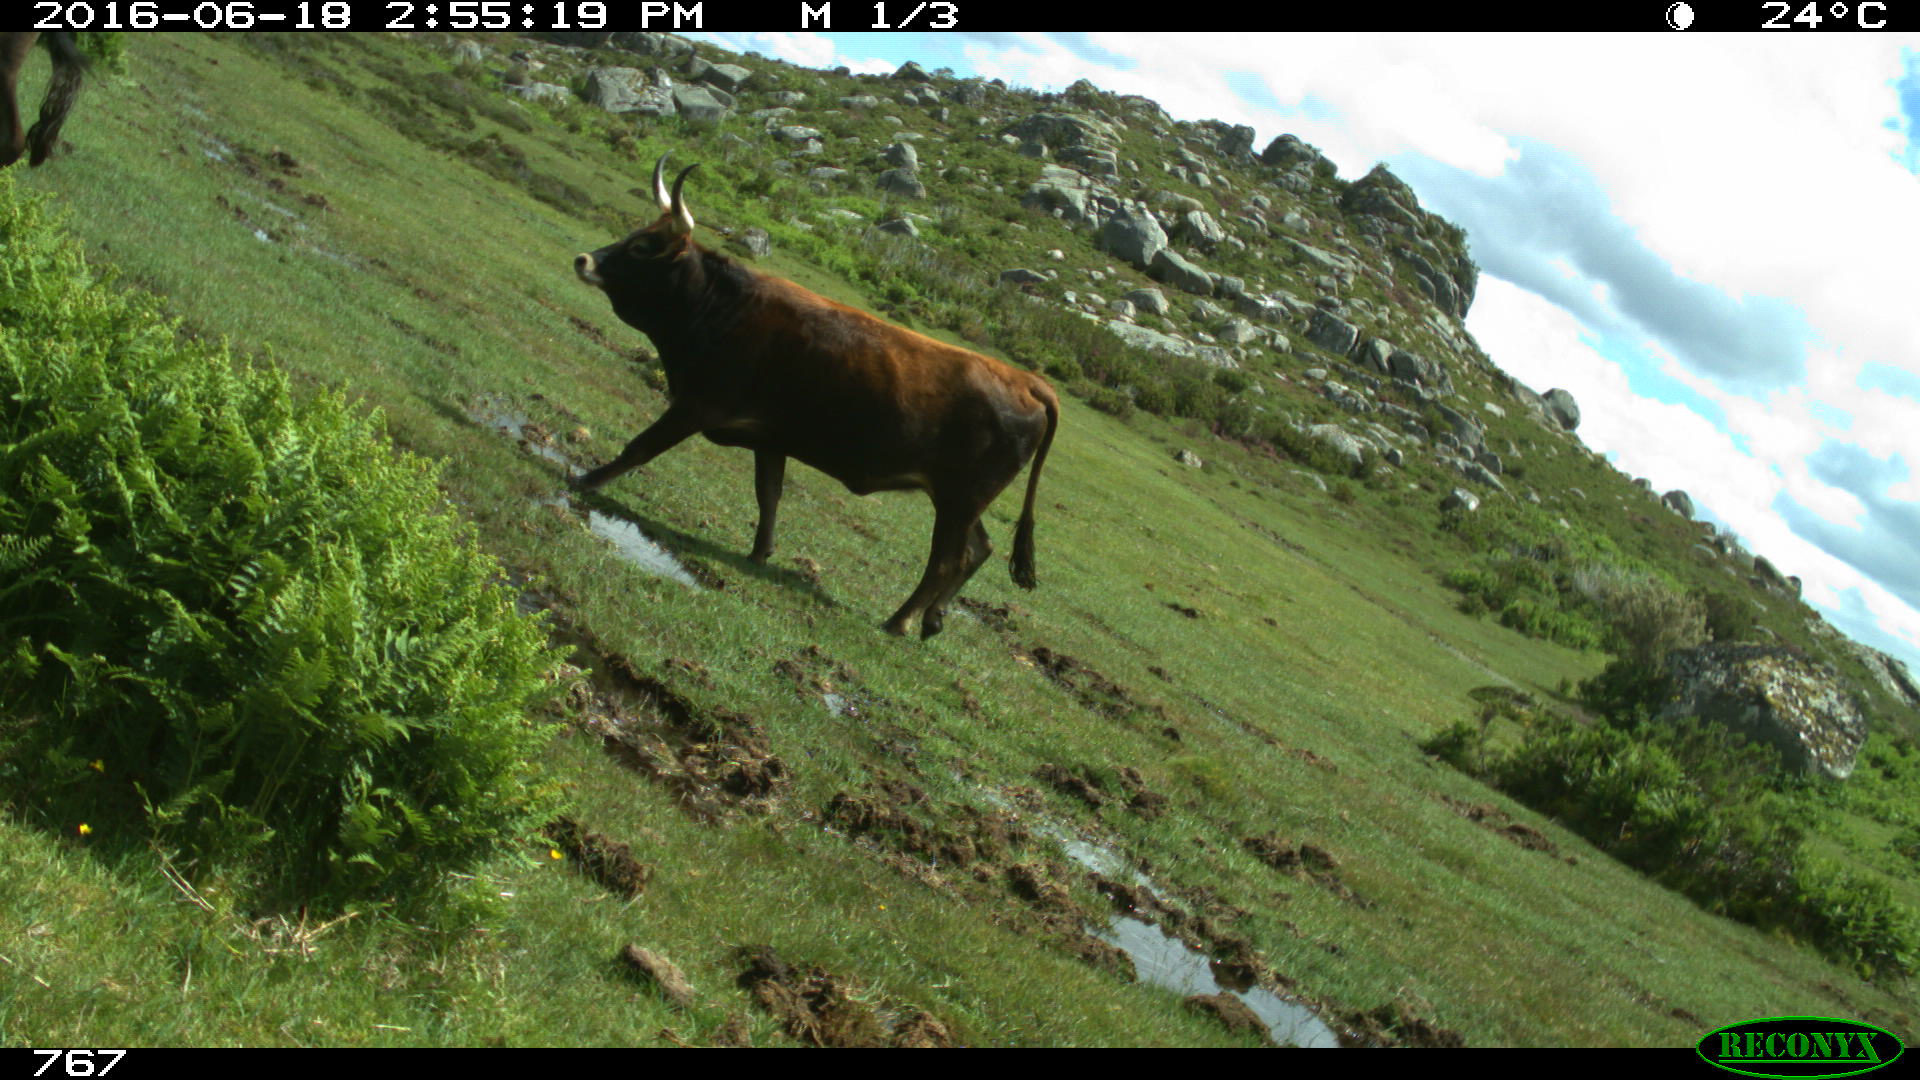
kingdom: Animalia
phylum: Chordata
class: Mammalia
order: Artiodactyla
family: Bovidae
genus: Bos
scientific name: Bos taurus
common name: Domesticated cattle
